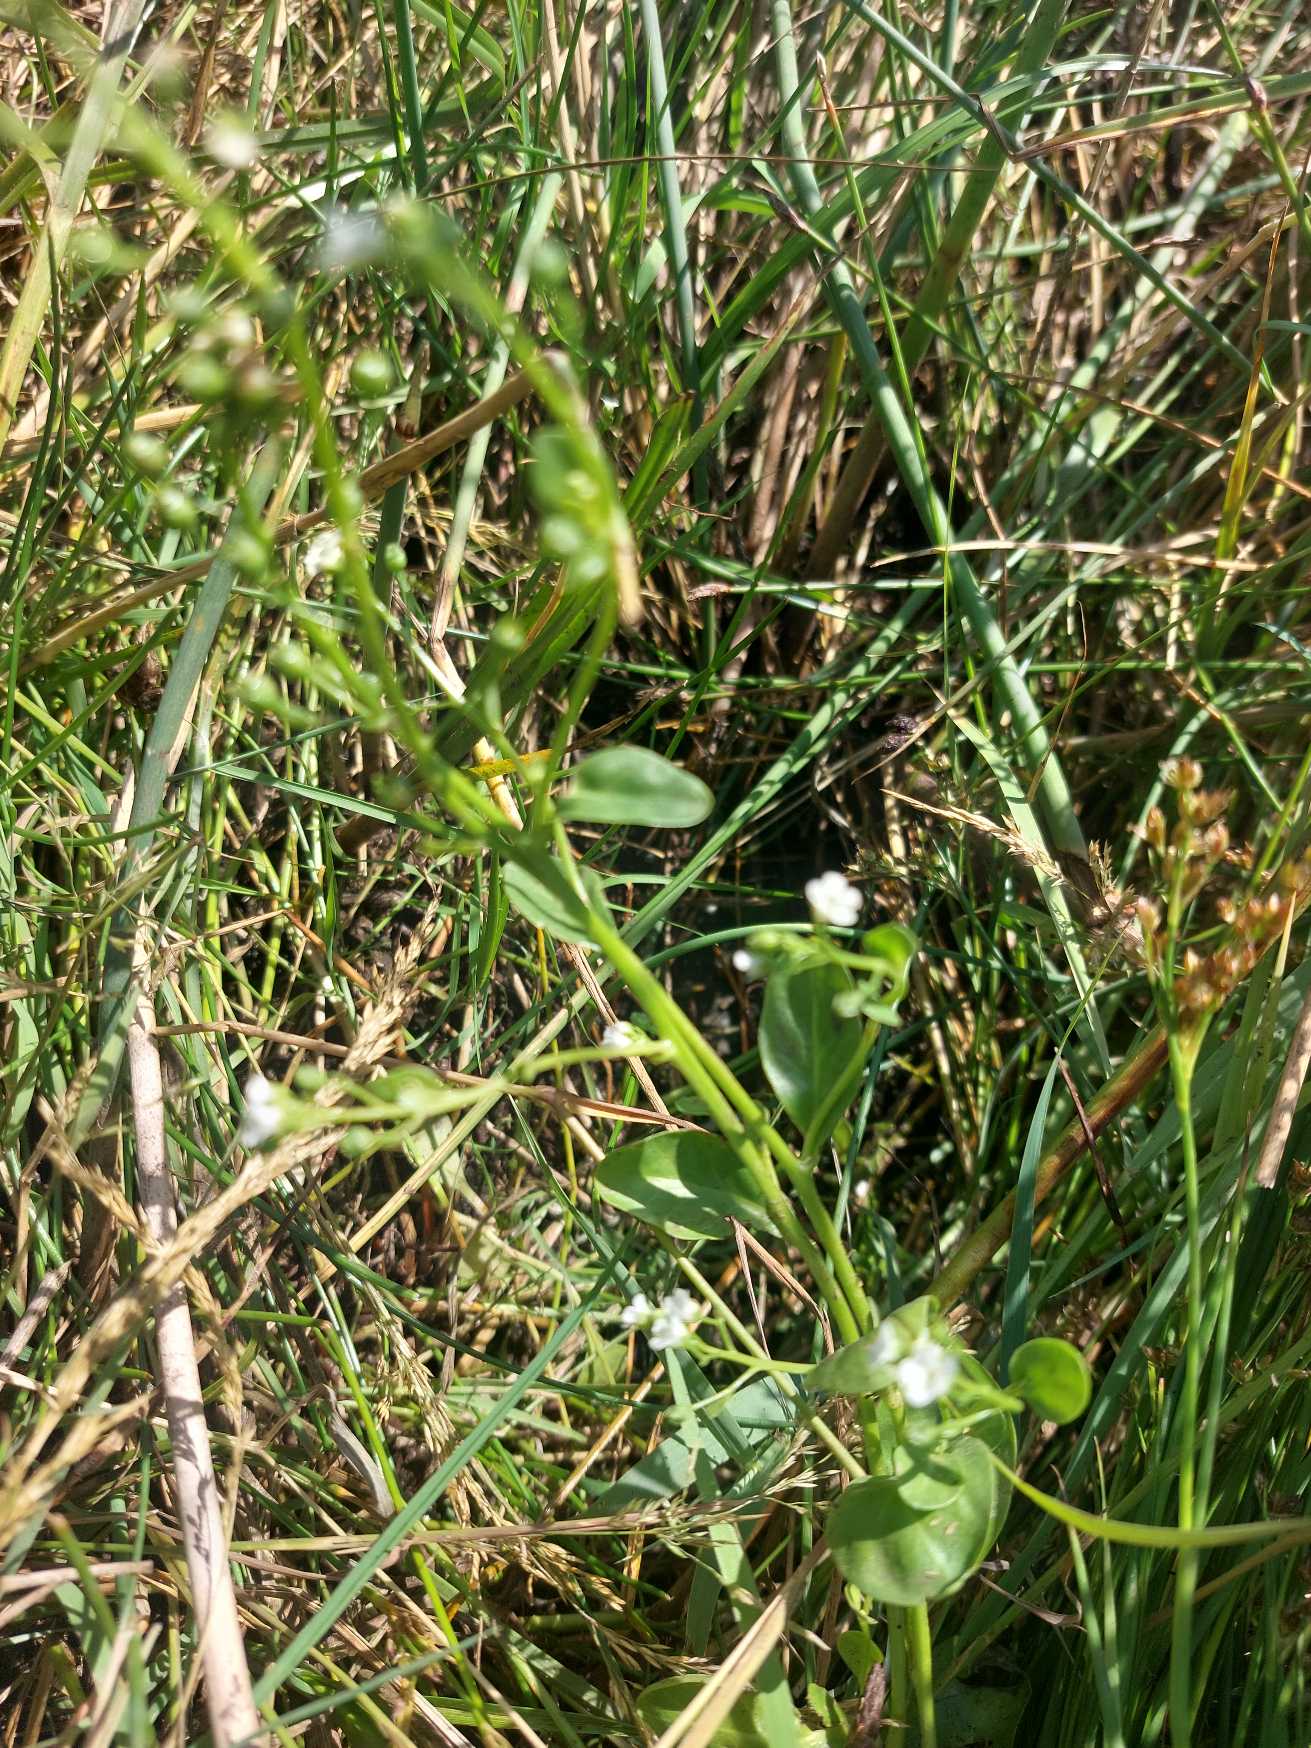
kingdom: Plantae
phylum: Tracheophyta
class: Magnoliopsida
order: Ericales
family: Primulaceae
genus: Samolus
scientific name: Samolus valerandi
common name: Samel
